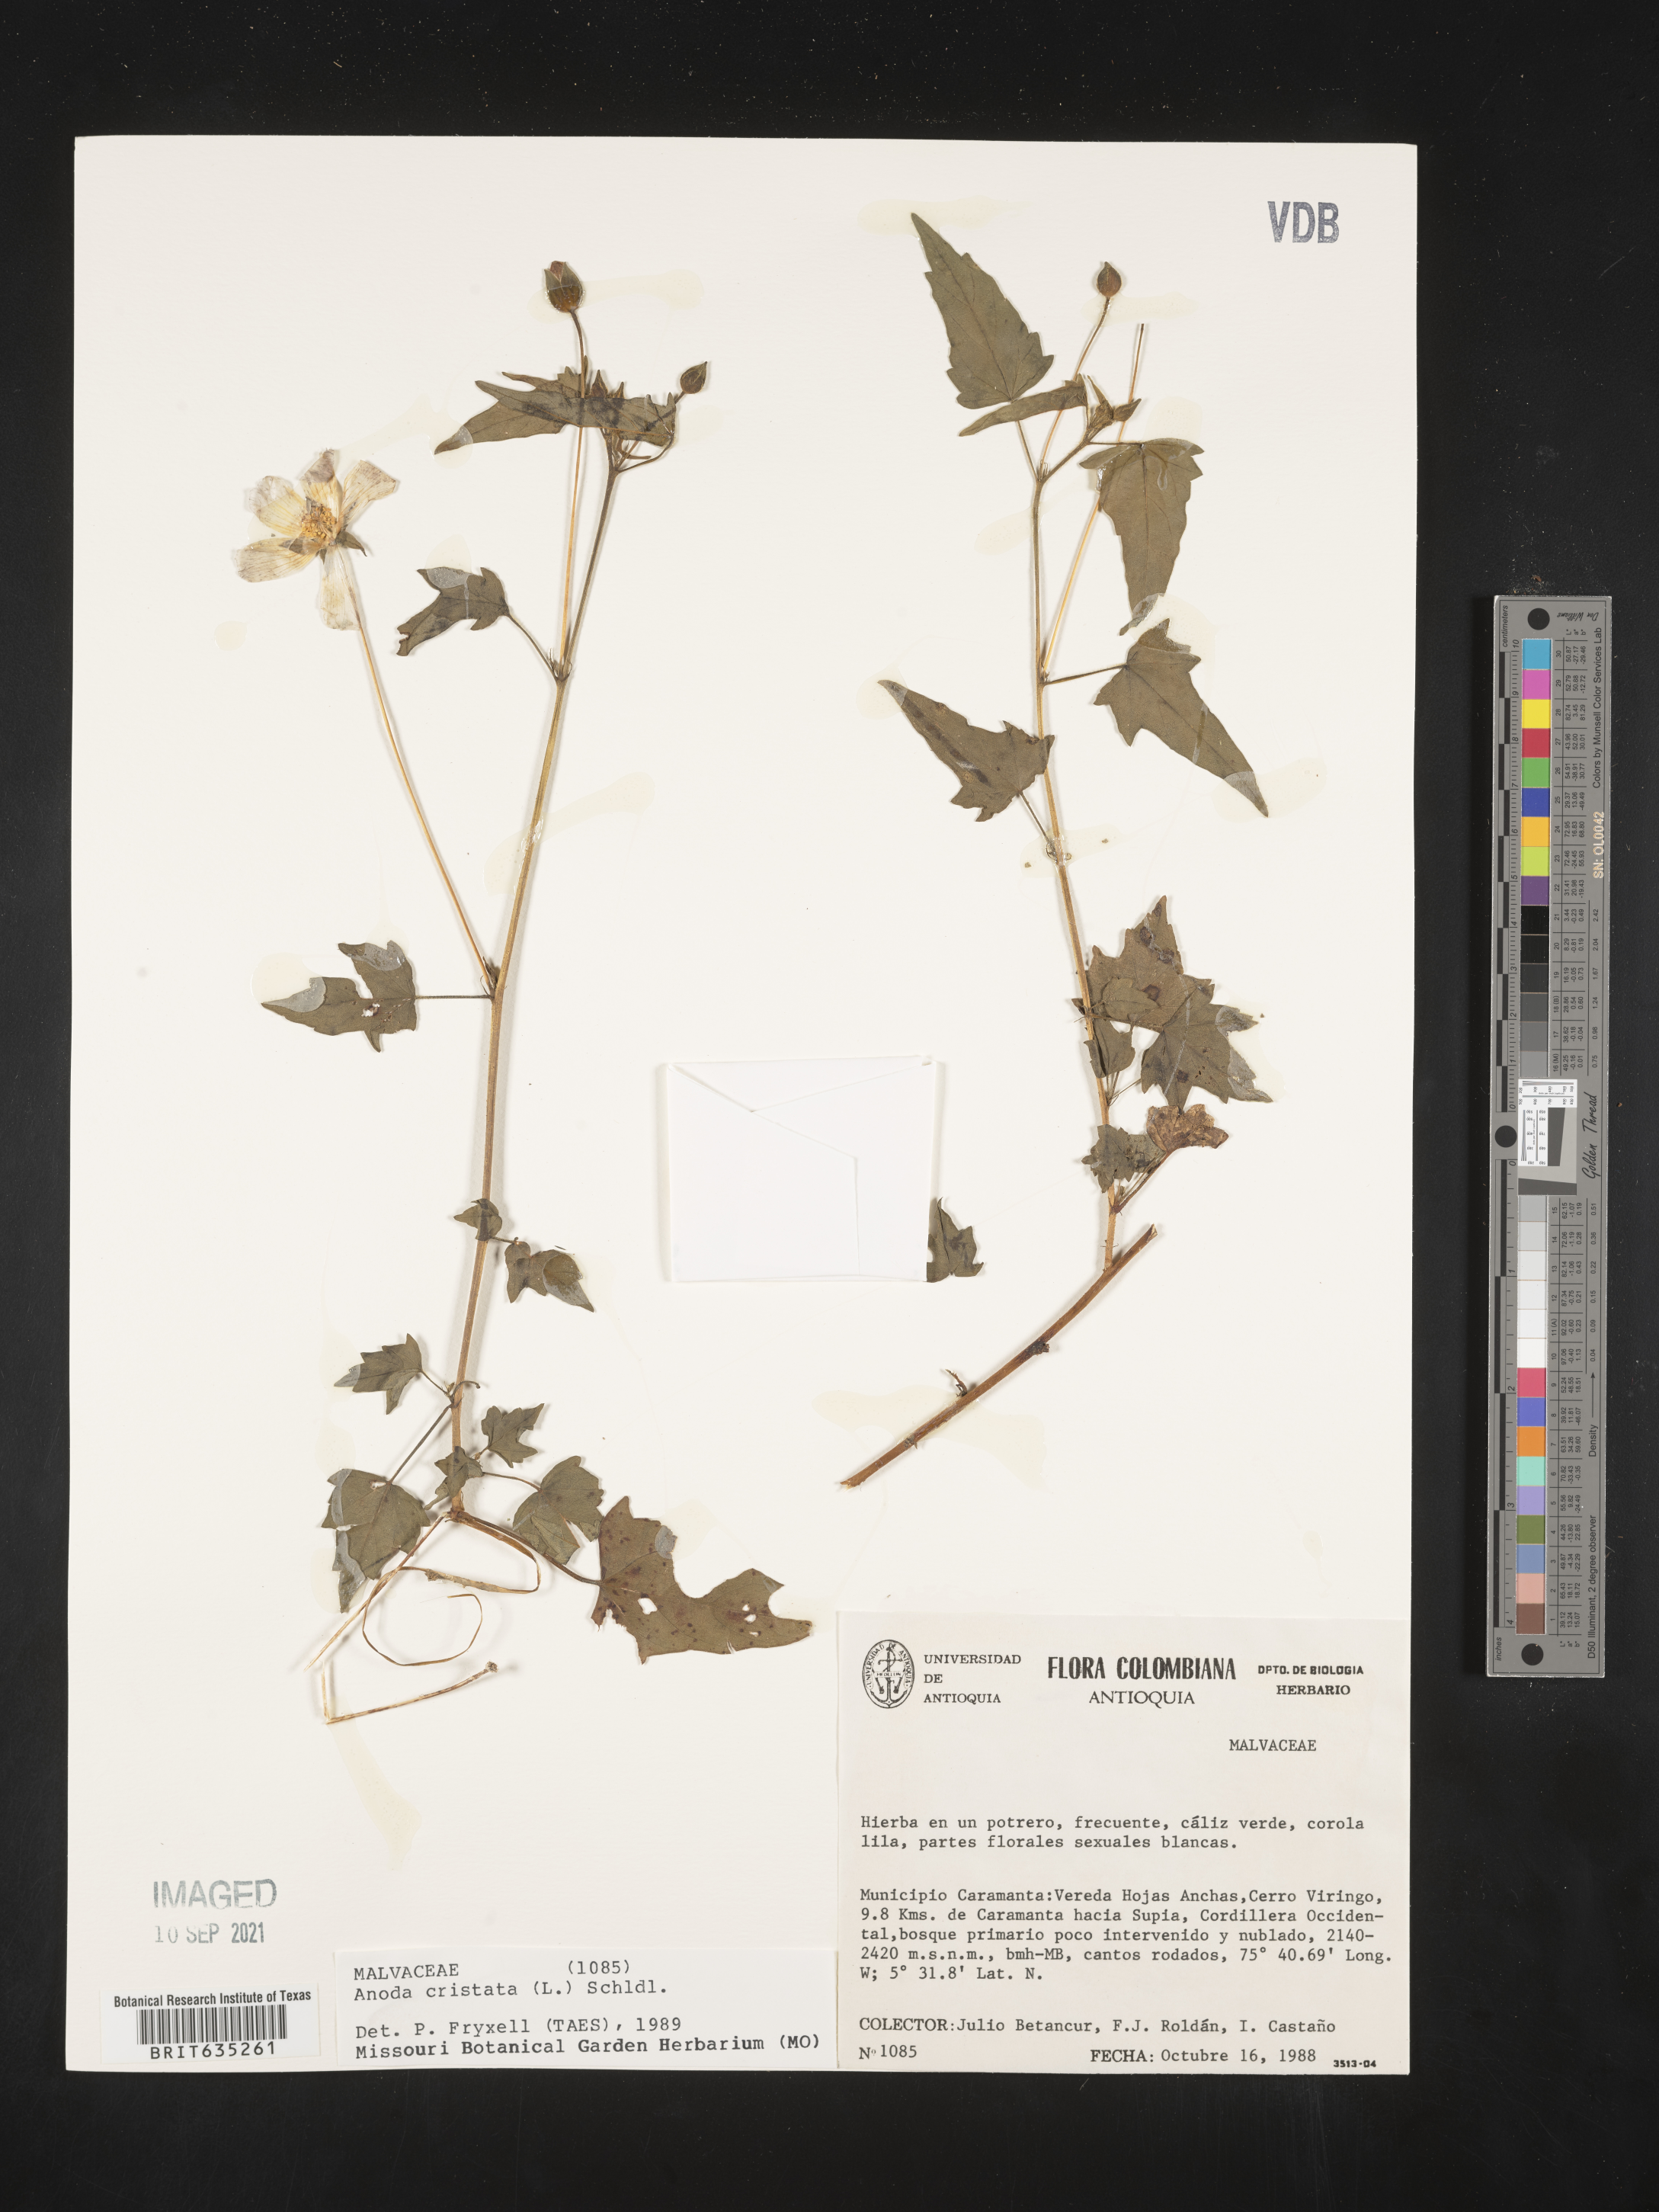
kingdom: Plantae
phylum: Tracheophyta
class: Magnoliopsida
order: Malvales
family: Malvaceae
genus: Anoda
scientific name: Anoda
